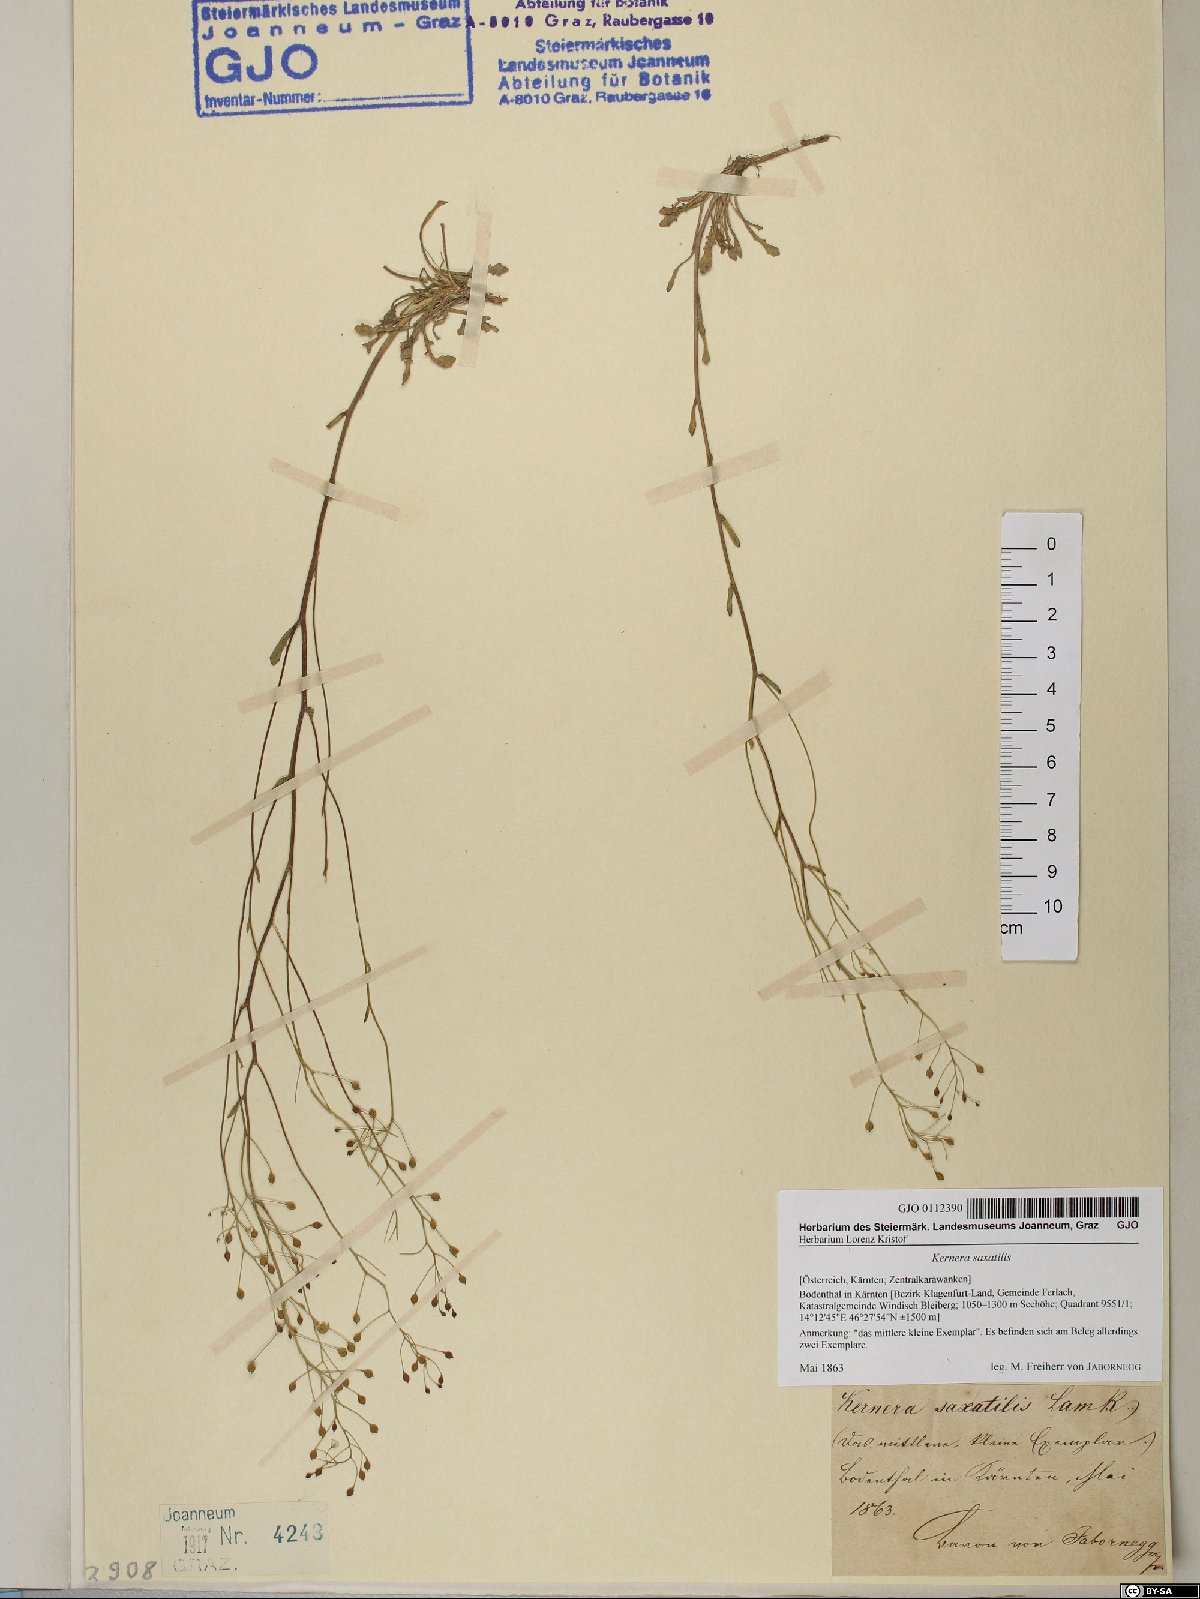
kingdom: Plantae
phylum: Tracheophyta
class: Magnoliopsida
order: Brassicales
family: Brassicaceae
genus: Kernera
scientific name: Kernera saxatilis
